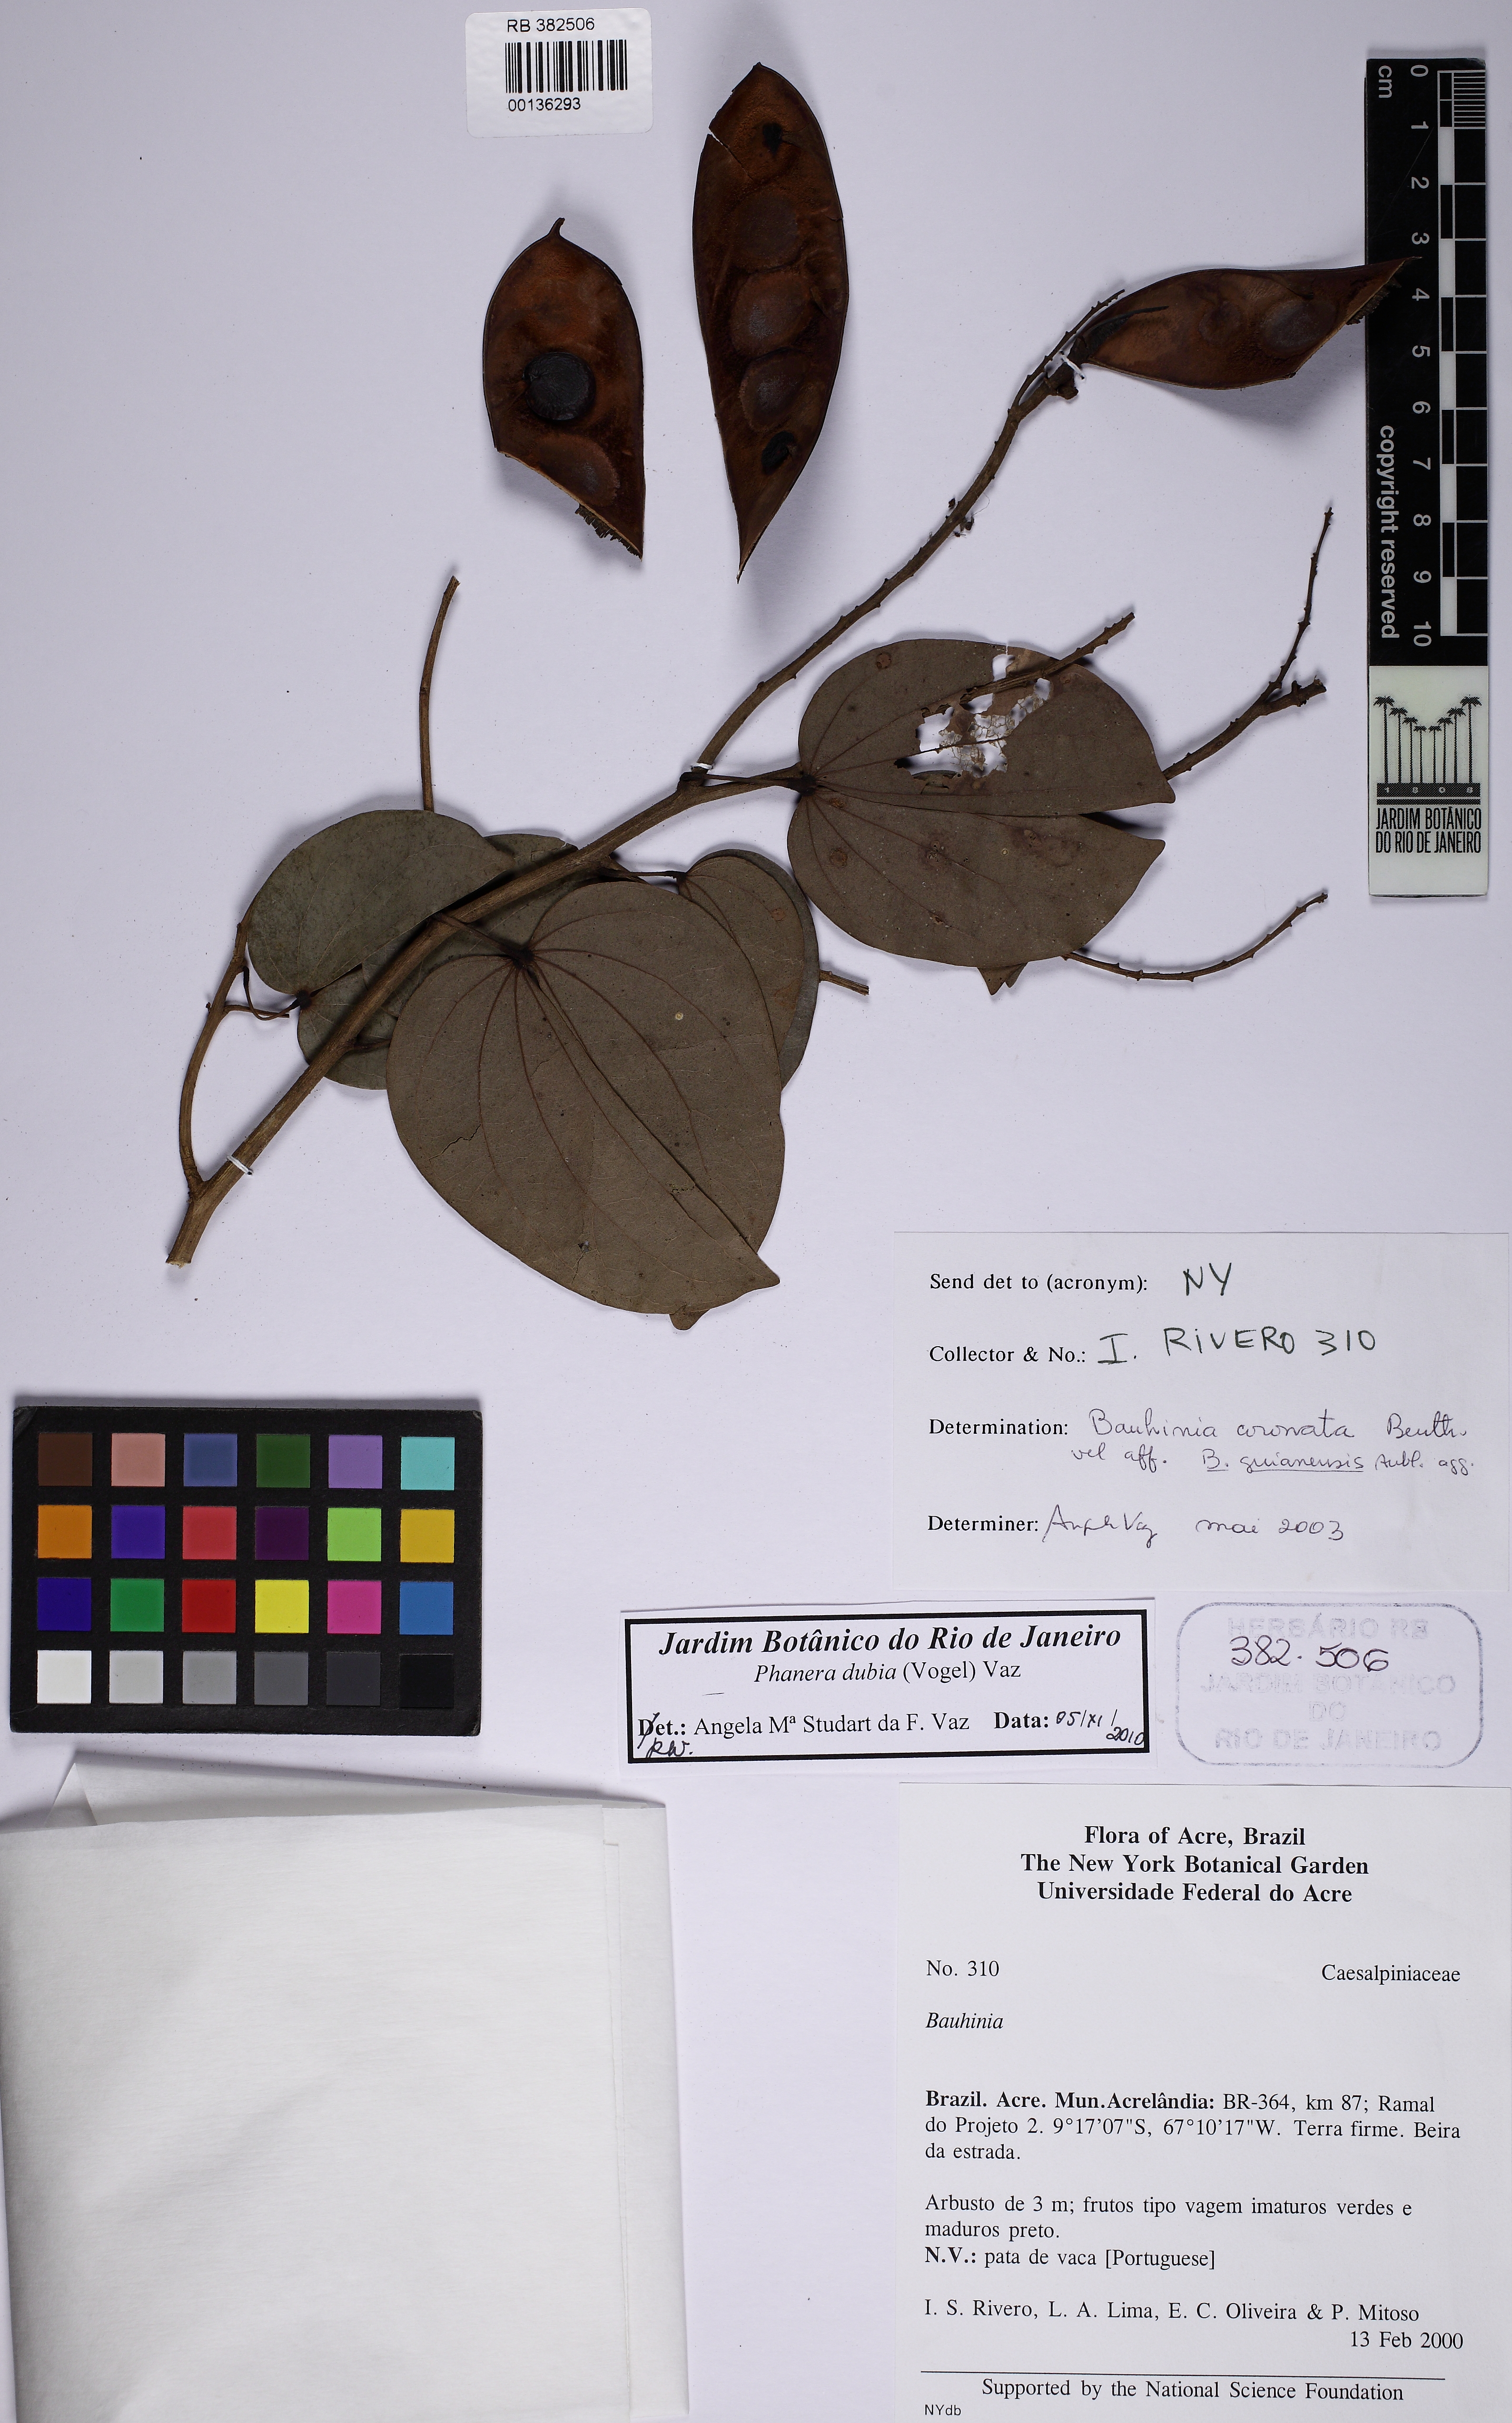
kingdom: Plantae
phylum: Tracheophyta
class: Magnoliopsida
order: Fabales
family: Fabaceae
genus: Schnella
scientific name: Schnella outimouta
